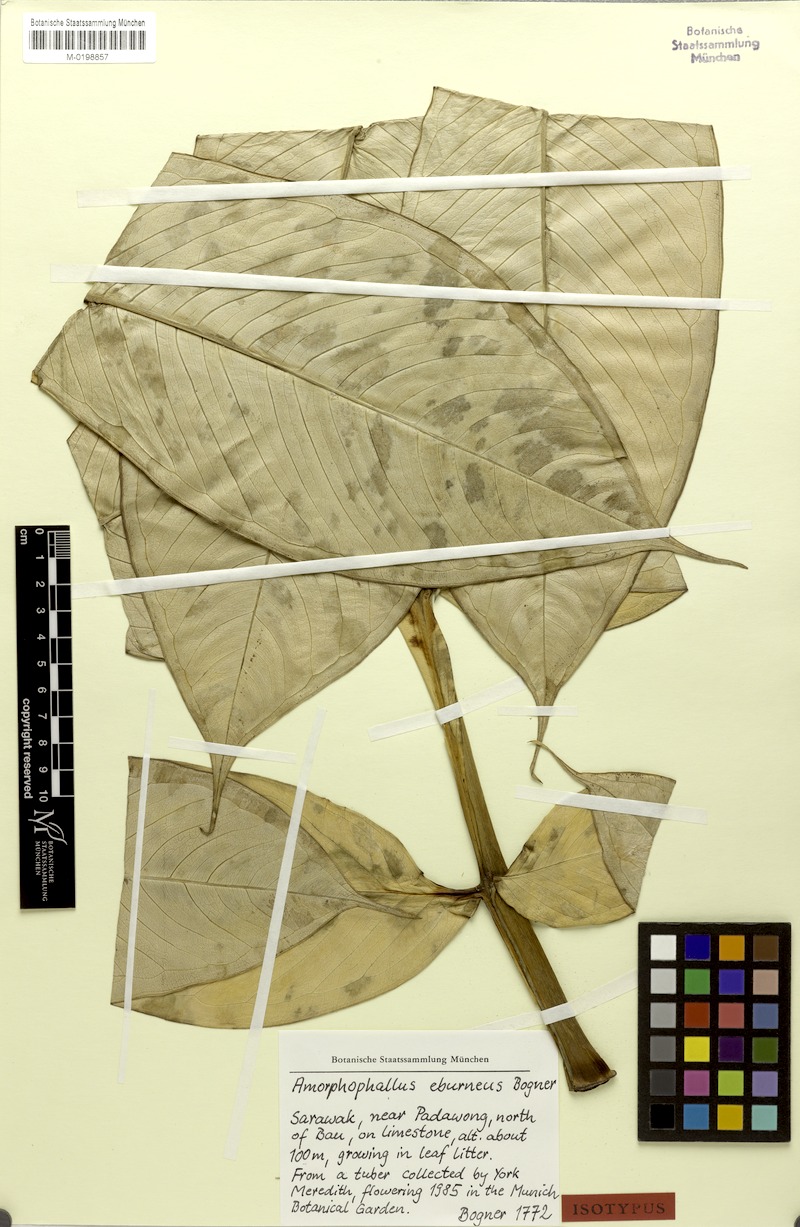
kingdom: Plantae
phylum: Tracheophyta
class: Liliopsida
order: Alismatales
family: Araceae
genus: Amorphophallus
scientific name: Amorphophallus eburneus
